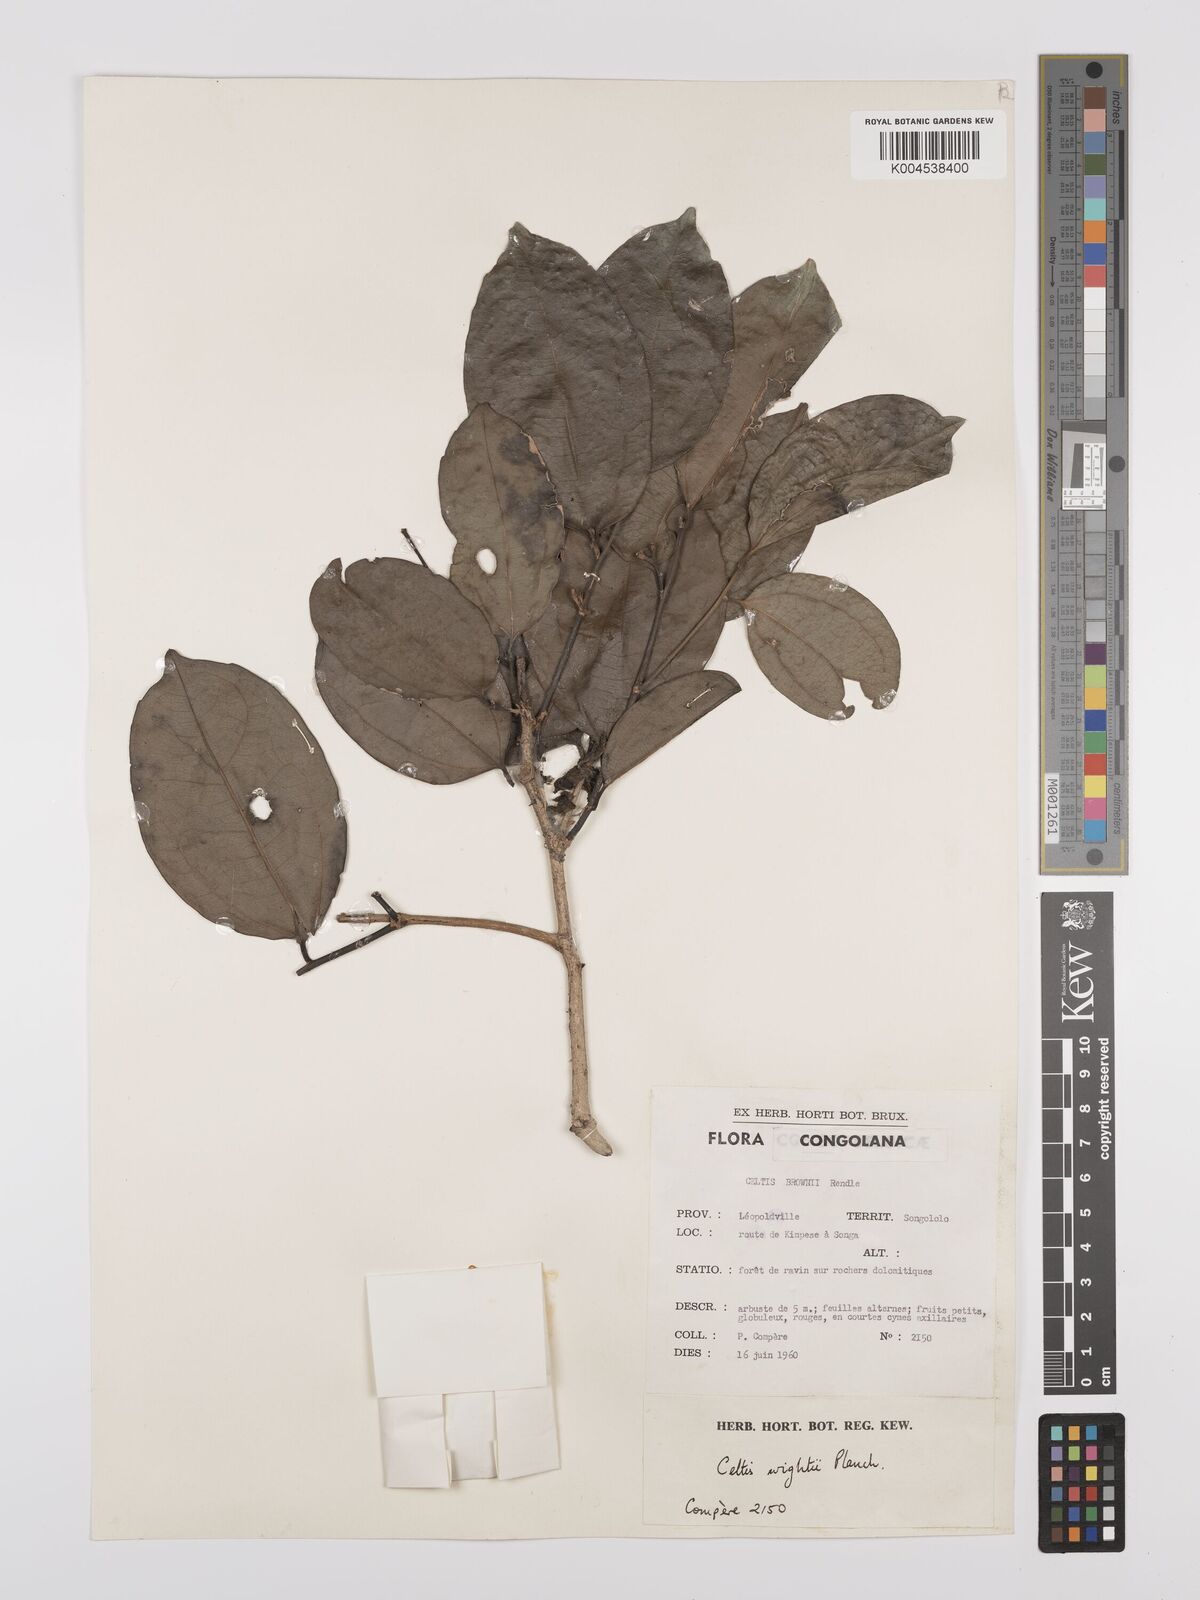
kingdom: Plantae
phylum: Tracheophyta
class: Magnoliopsida
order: Rosales
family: Cannabaceae
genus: Celtis
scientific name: Celtis philippensis
